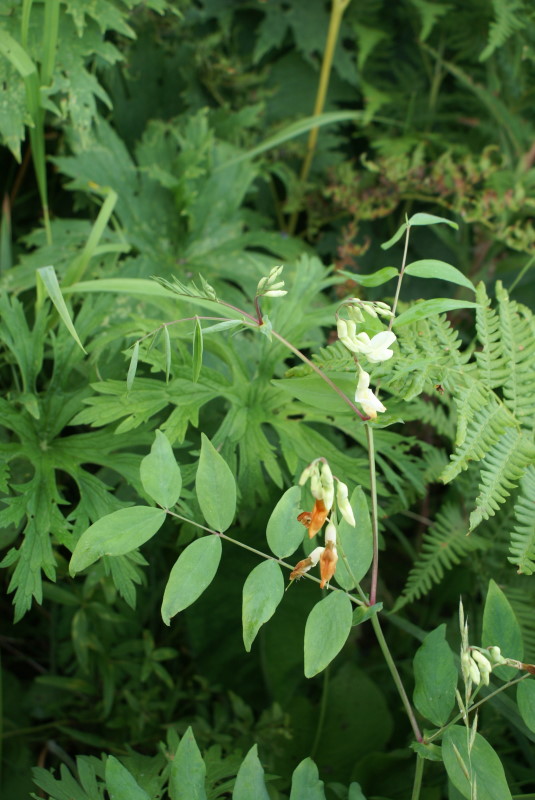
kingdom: Plantae
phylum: Tracheophyta
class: Magnoliopsida
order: Fabales
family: Fabaceae
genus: Lathyrus
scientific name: Lathyrus gmelinii
